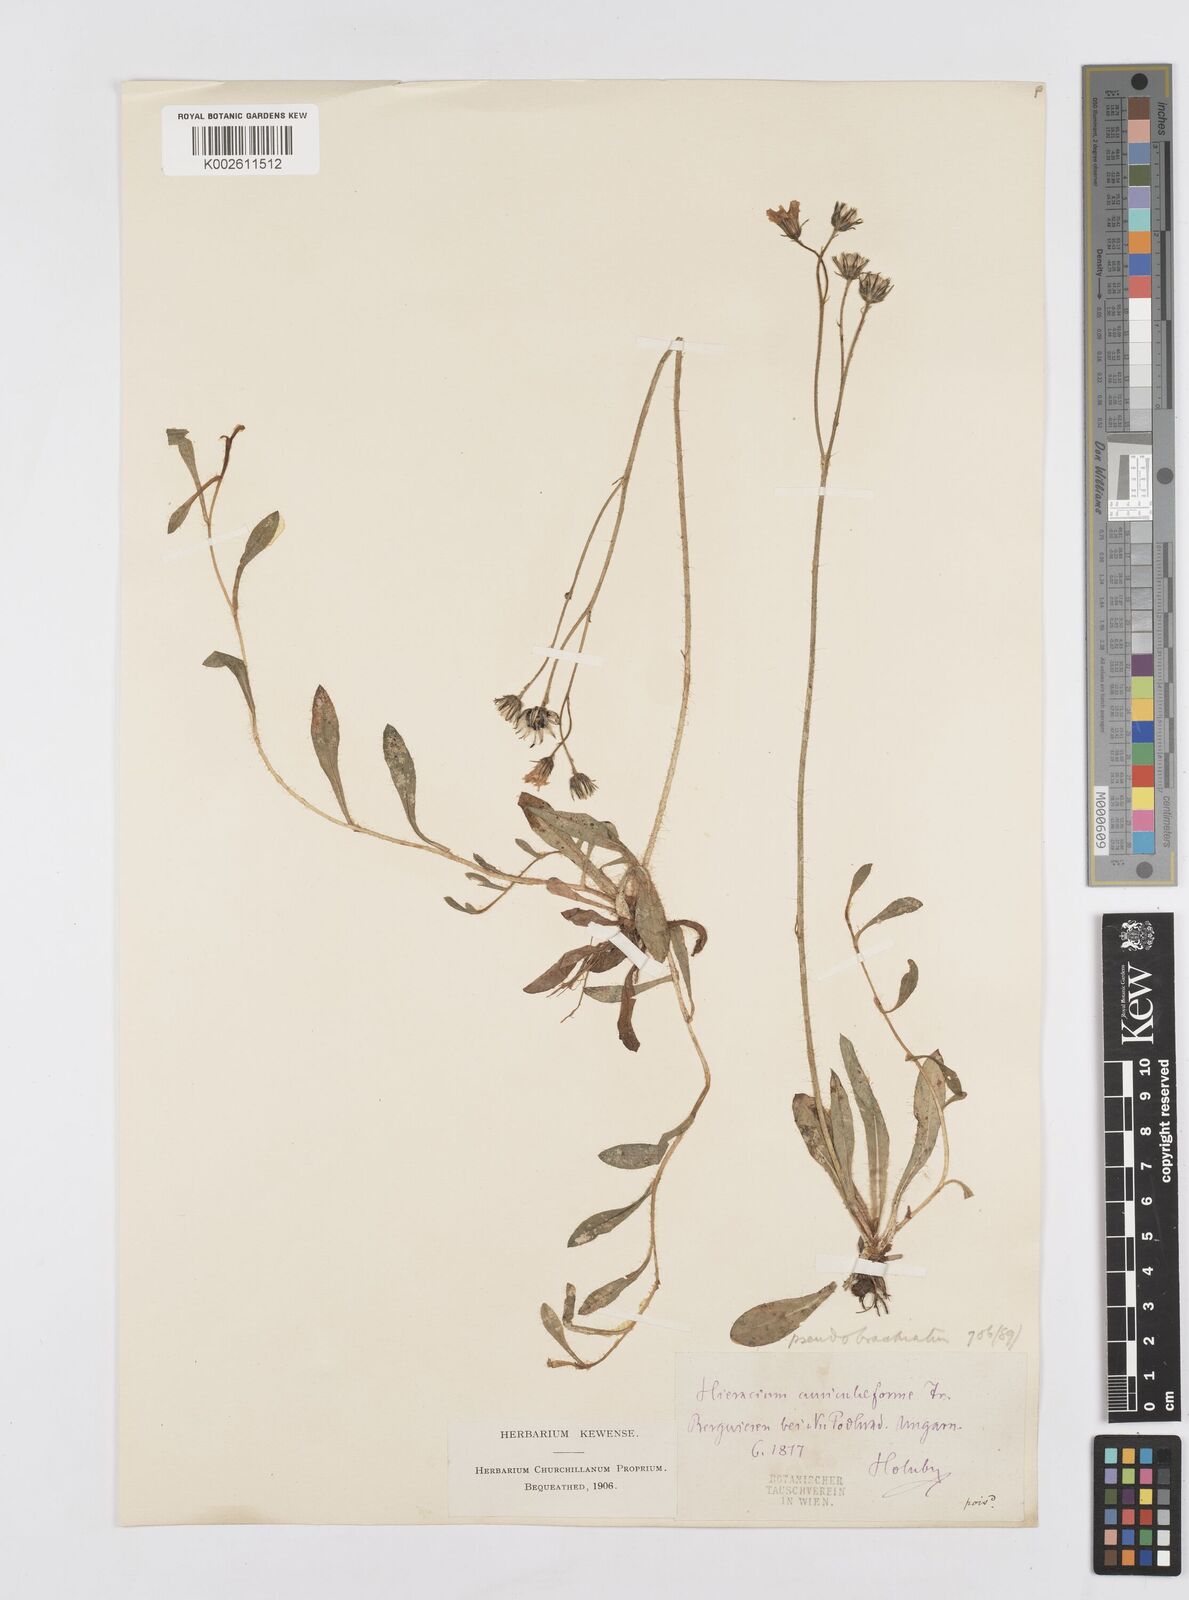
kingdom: Plantae
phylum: Tracheophyta
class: Magnoliopsida
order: Asterales
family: Asteraceae
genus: Pilosella
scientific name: Pilosella acutifolia
